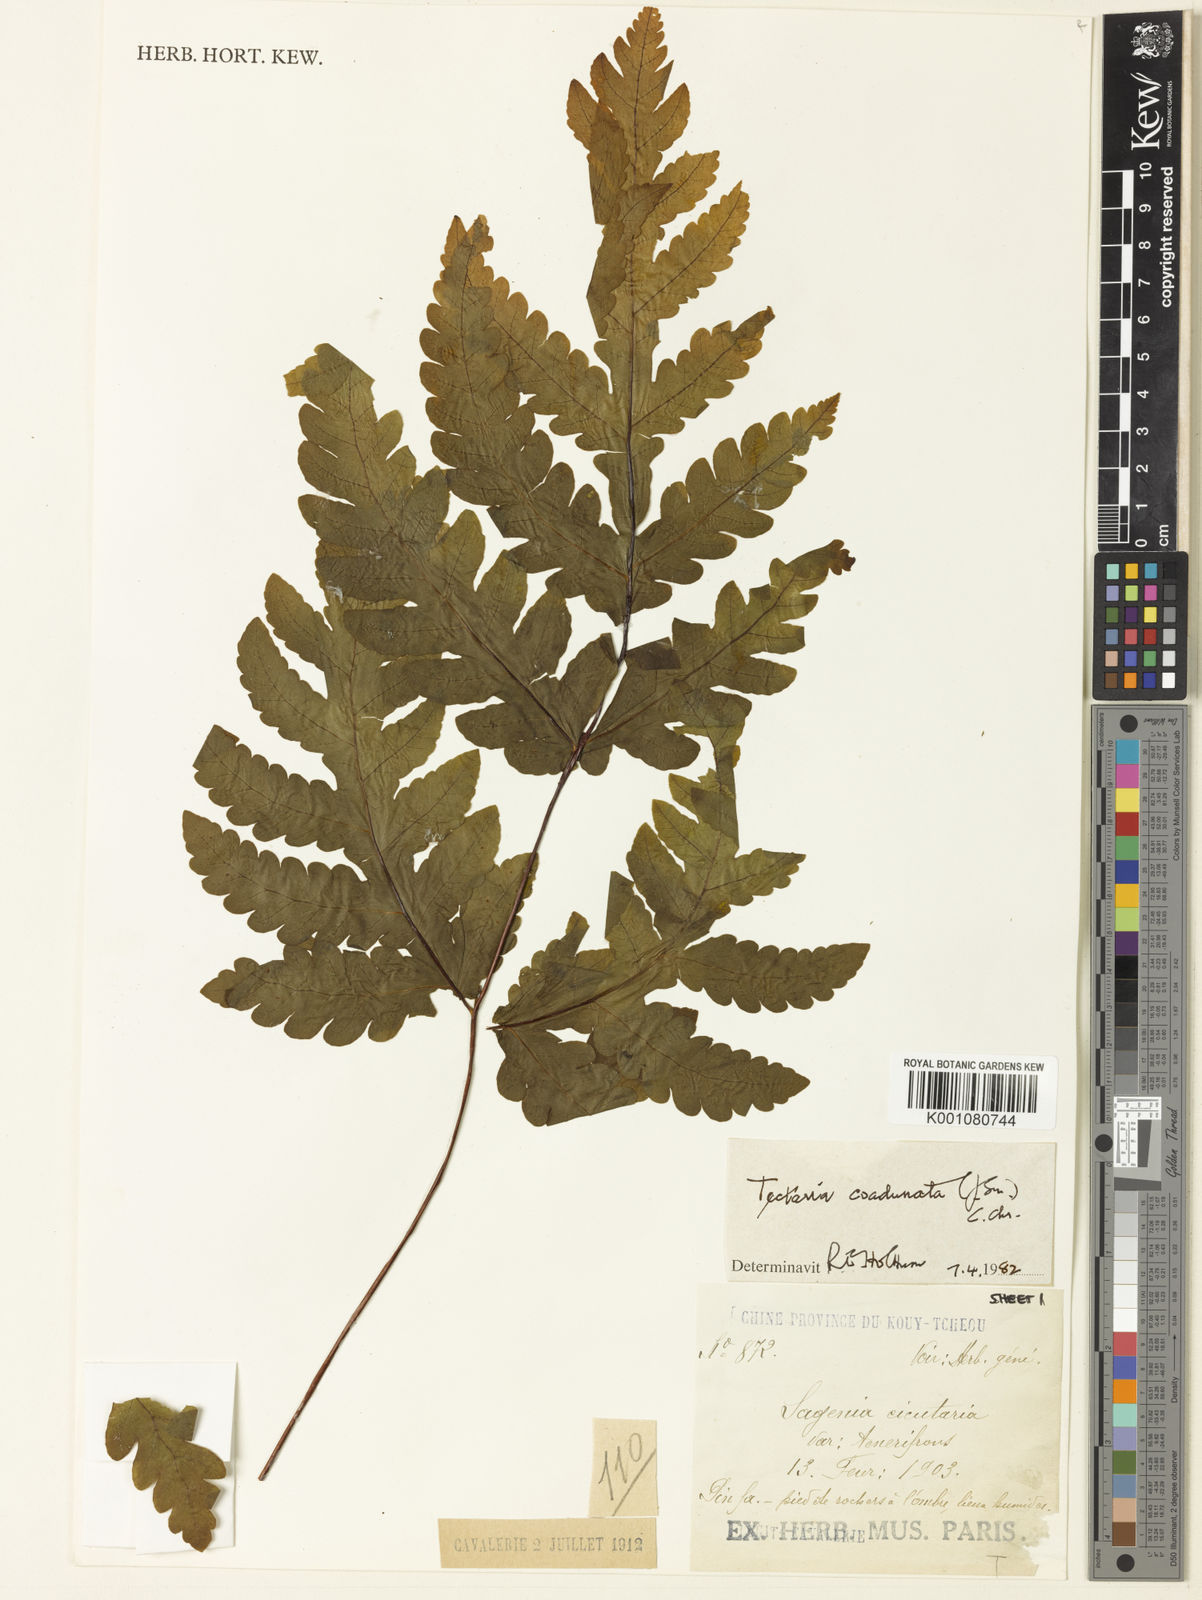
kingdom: Plantae
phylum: Tracheophyta
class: Polypodiopsida
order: Polypodiales
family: Tectariaceae
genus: Tectaria
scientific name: Tectaria coadunata
